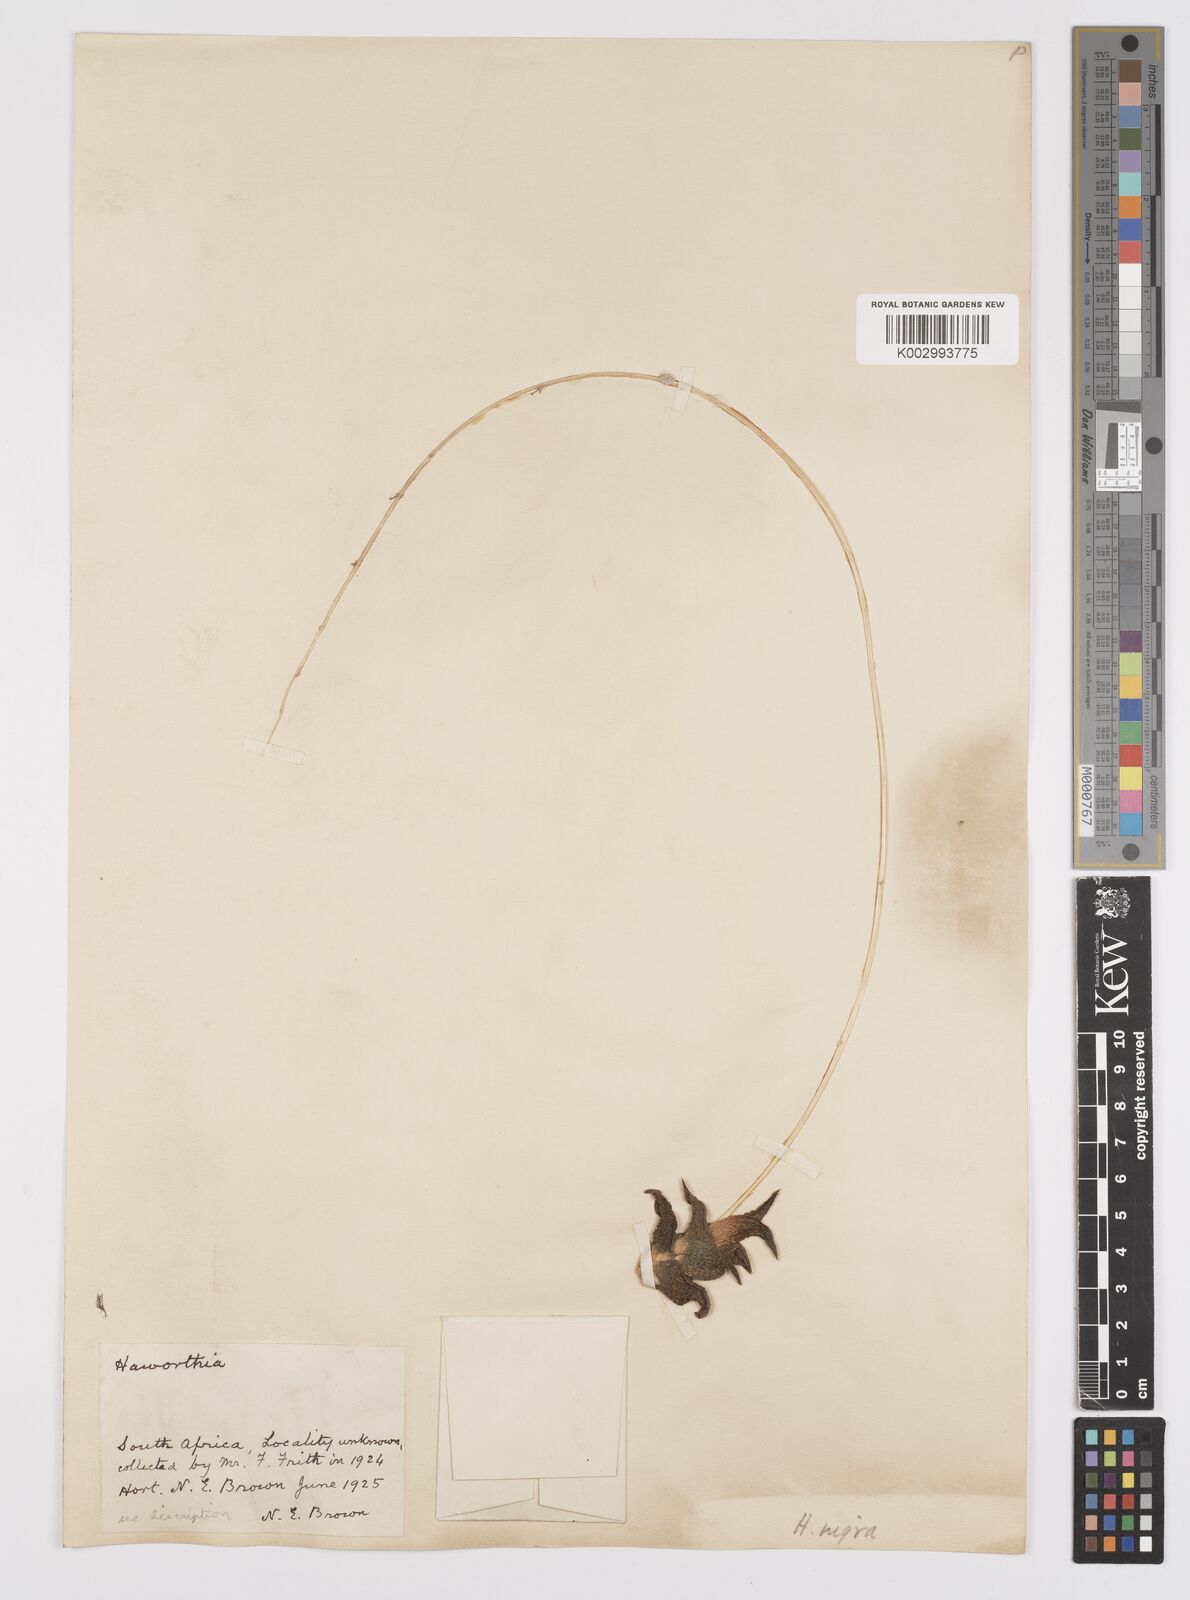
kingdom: Plantae
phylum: Tracheophyta
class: Liliopsida
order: Asparagales
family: Asphodelaceae
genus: Haworthiopsis
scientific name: Haworthiopsis nigra
